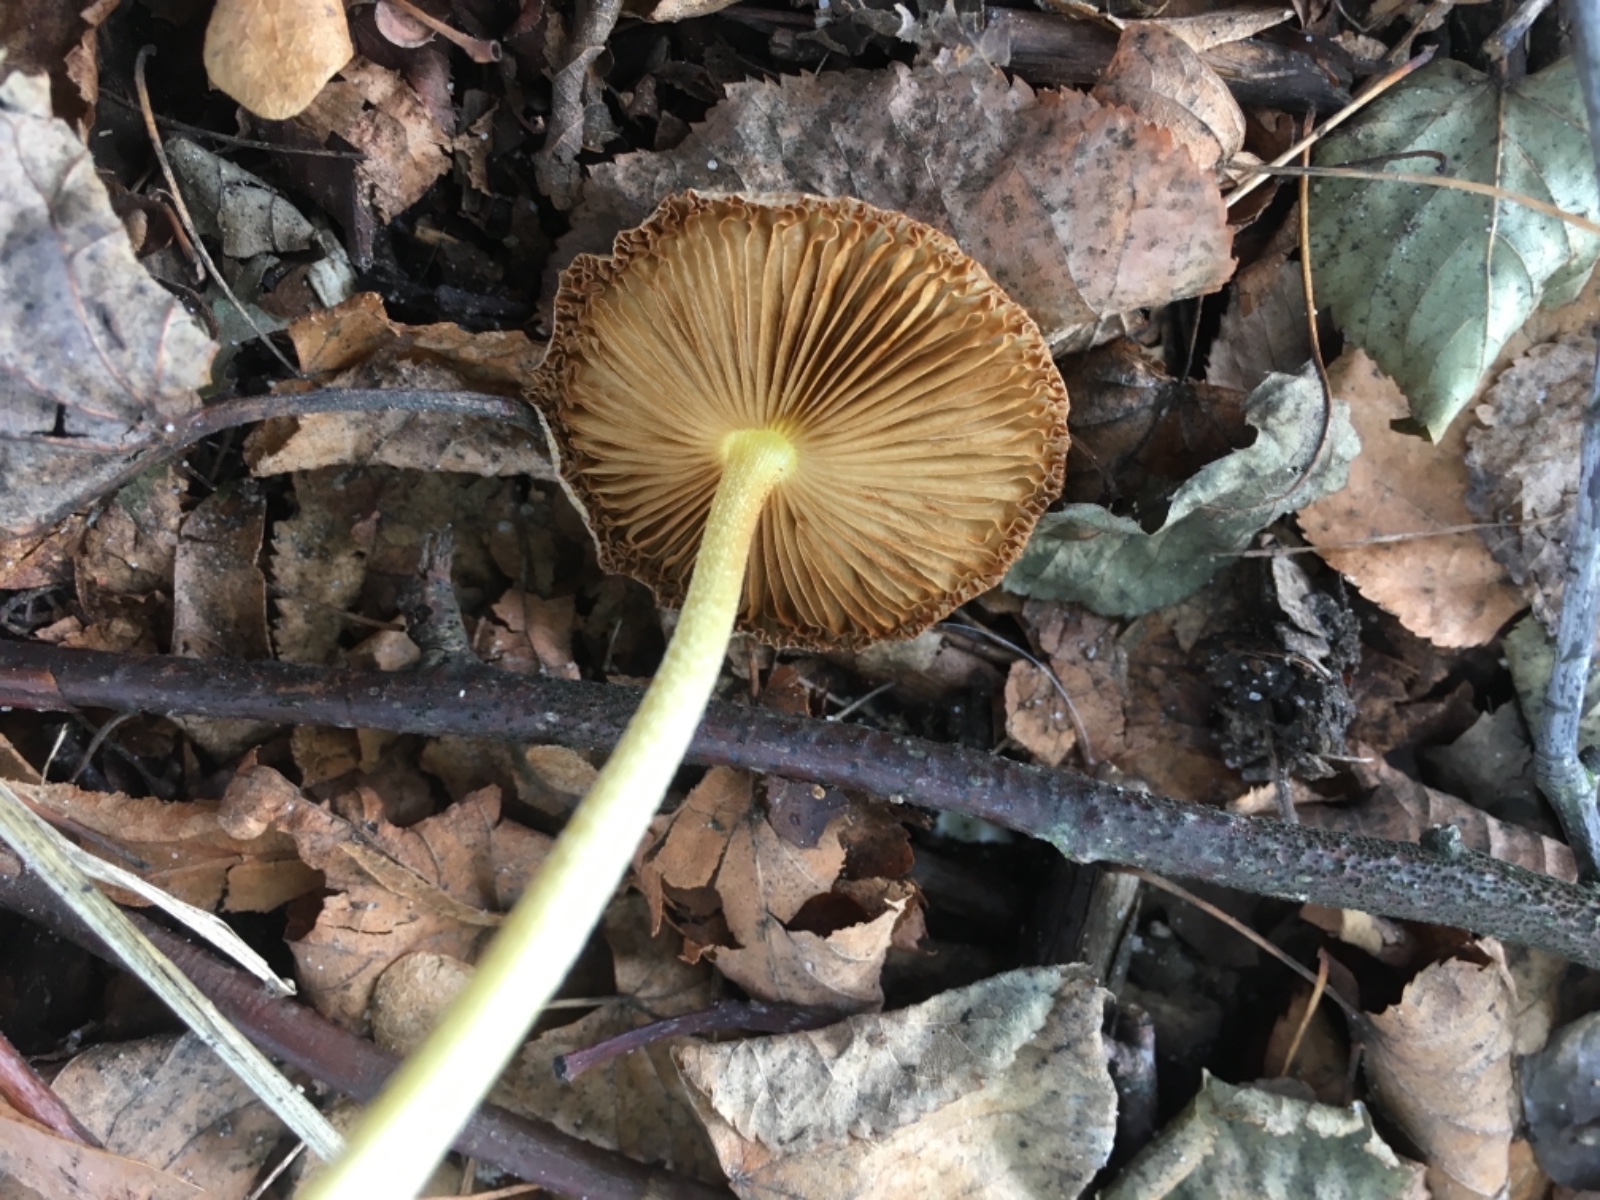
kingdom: Fungi
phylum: Basidiomycota
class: Agaricomycetes
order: Agaricales
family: Bolbitiaceae
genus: Bolbitius
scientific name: Bolbitius titubans
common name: almindelig gulhat
